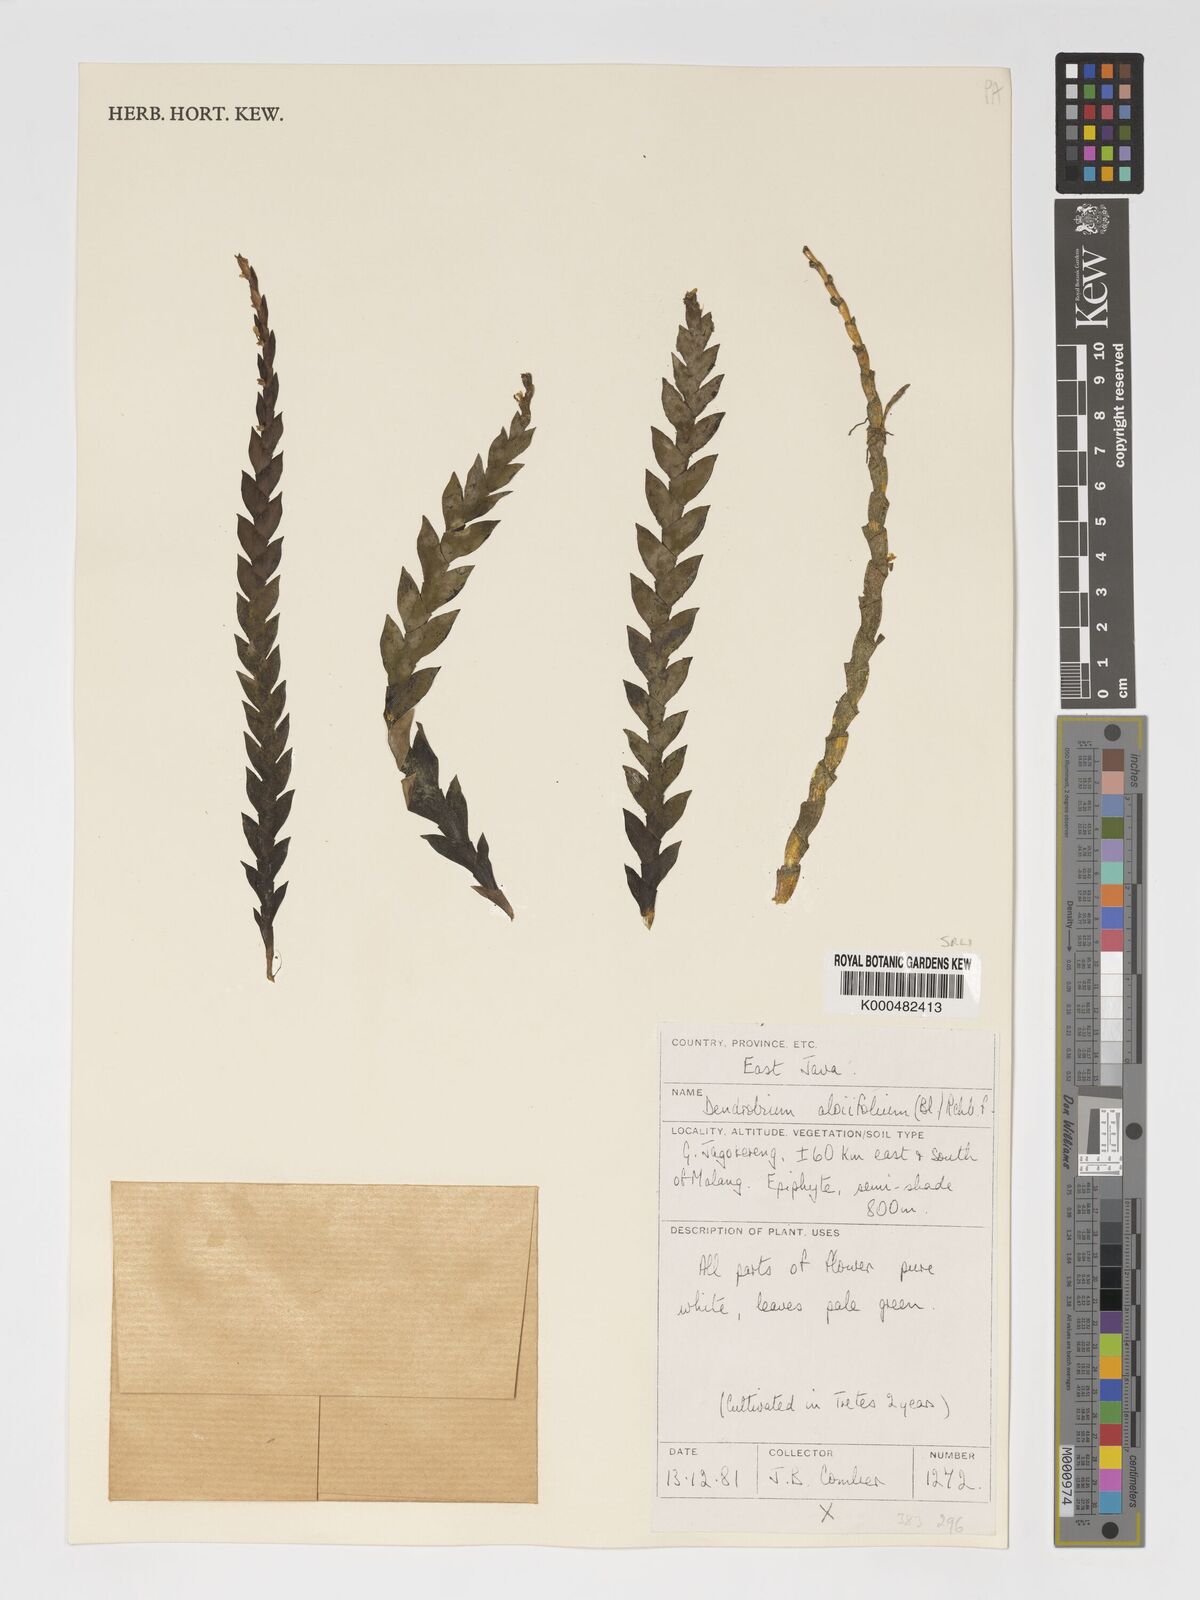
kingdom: Plantae
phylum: Tracheophyta
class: Liliopsida
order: Asparagales
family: Orchidaceae
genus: Dendrobium
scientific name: Dendrobium aloifolium
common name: Aloe-like dendrobium
